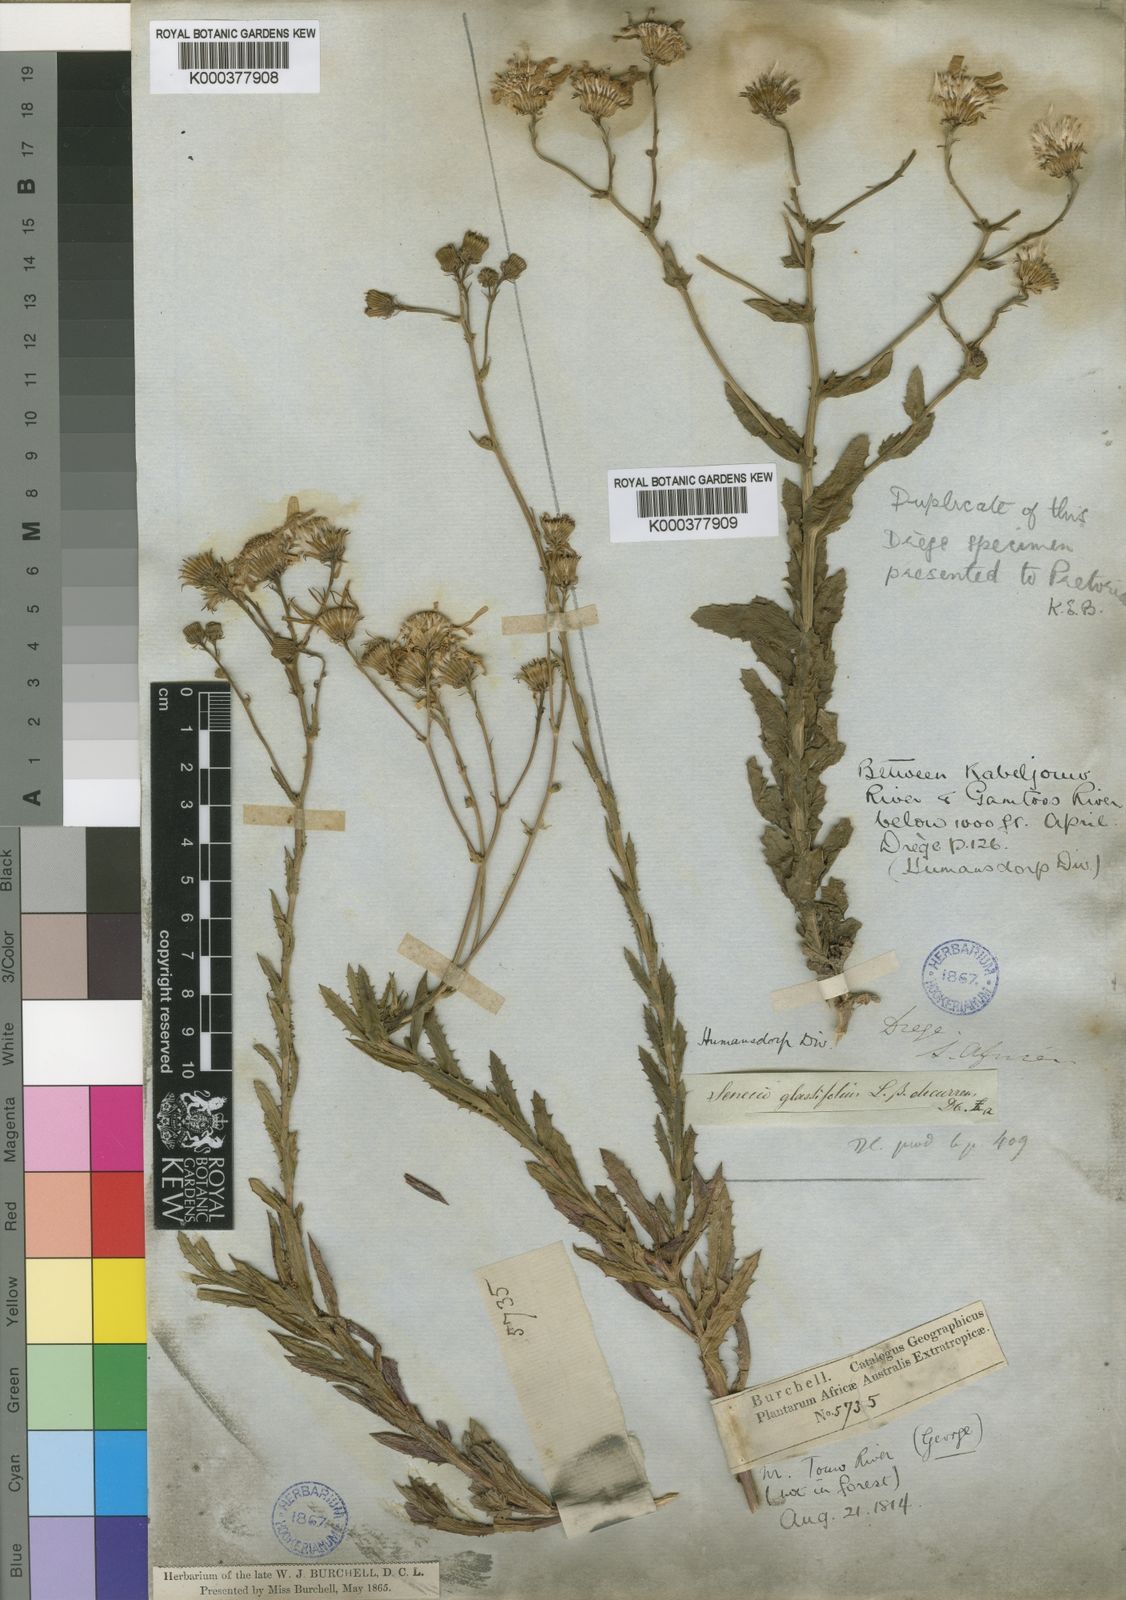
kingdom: Plantae
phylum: Tracheophyta
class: Magnoliopsida
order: Asterales
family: Asteraceae
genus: Senecio
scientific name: Senecio glastifolius
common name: Woad-leaved ragwort
